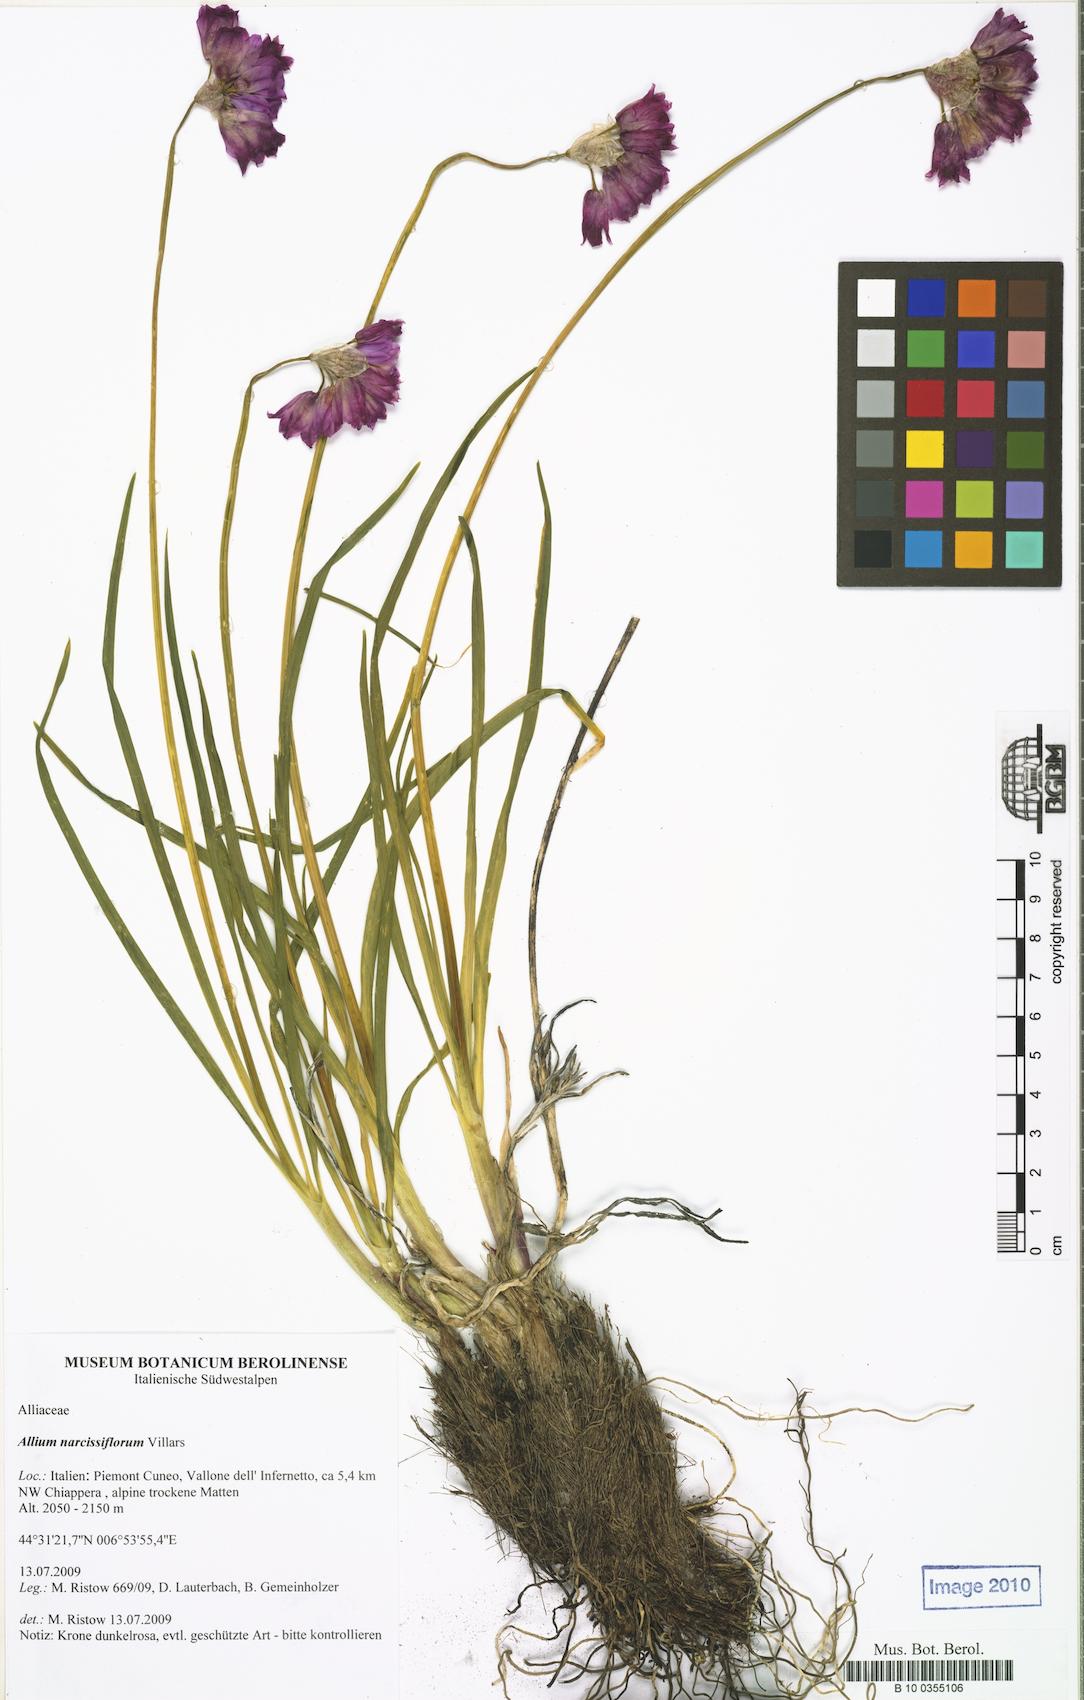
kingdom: Plantae
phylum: Tracheophyta
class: Liliopsida
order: Asparagales
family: Amaryllidaceae
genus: Allium
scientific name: Allium narcissiflorum
